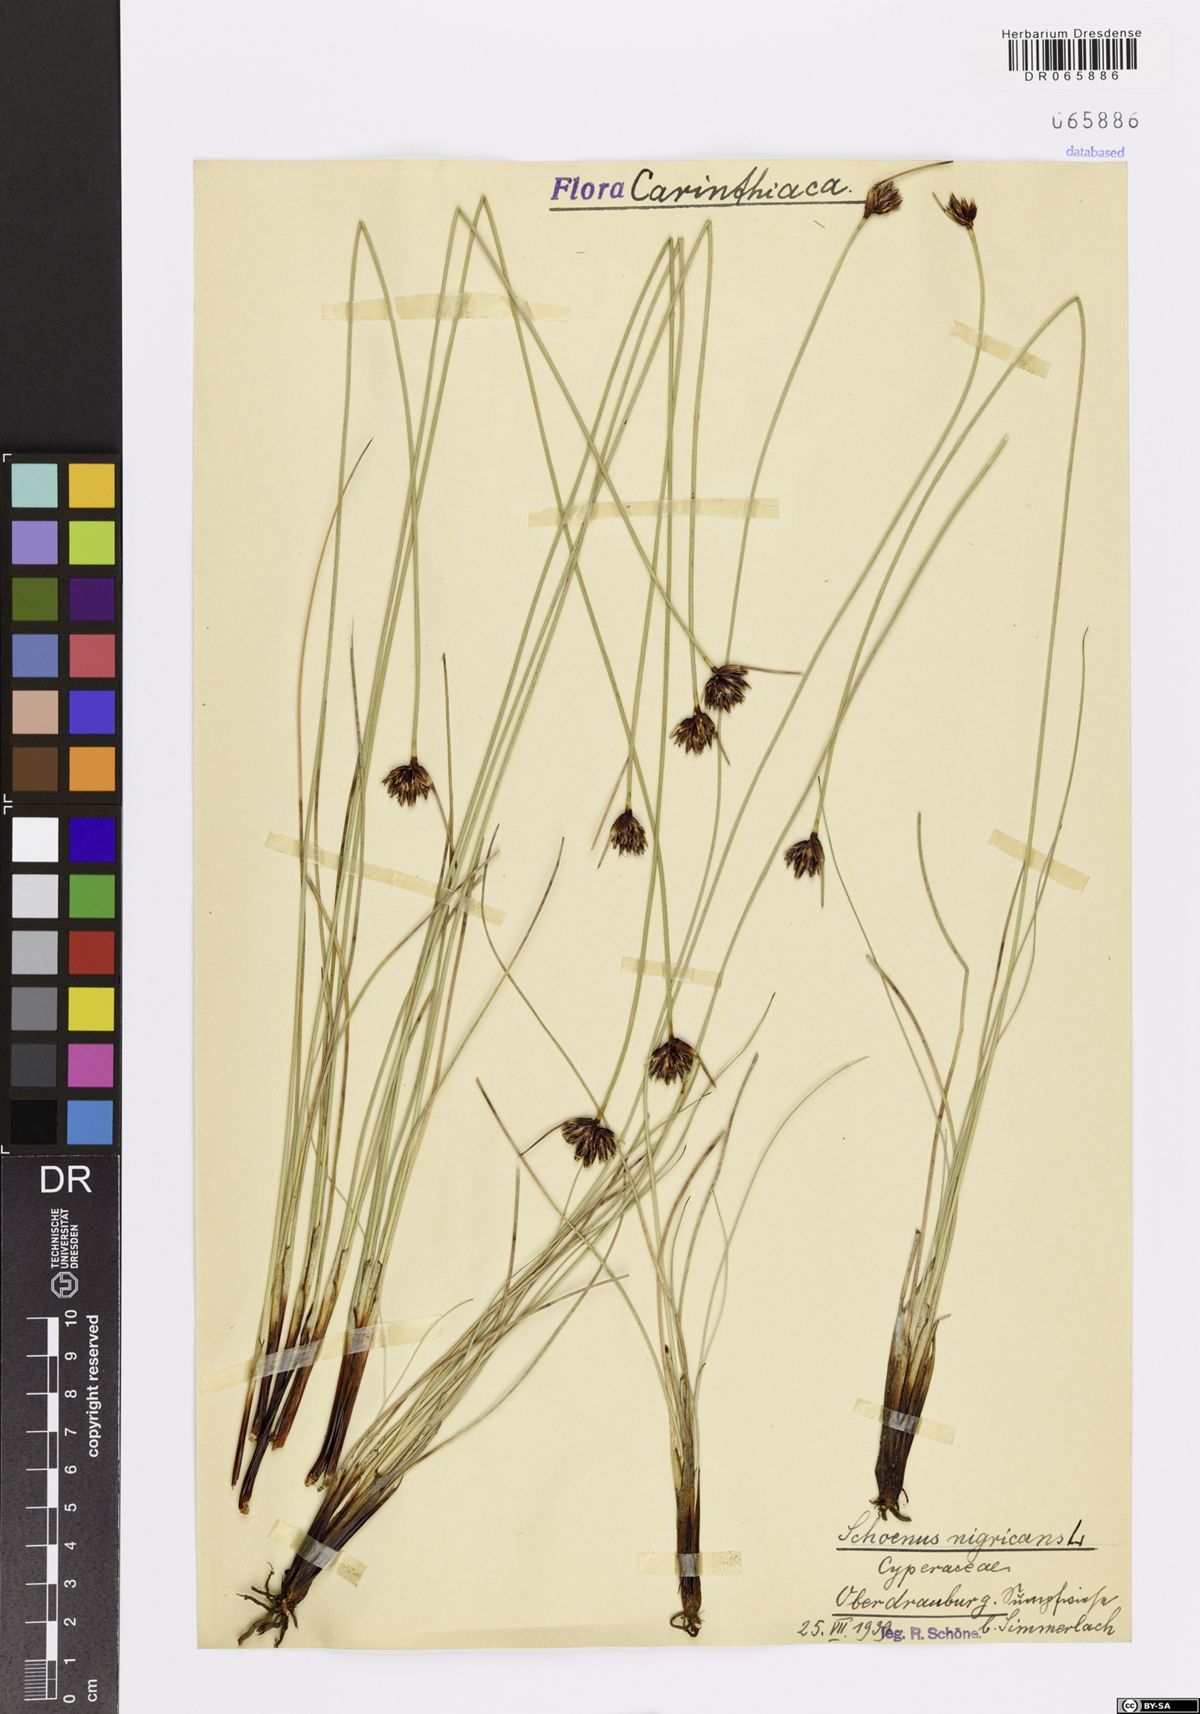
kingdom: Plantae
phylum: Tracheophyta
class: Liliopsida
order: Poales
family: Cyperaceae
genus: Schoenus
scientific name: Schoenus nigricans
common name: Black bog-rush
